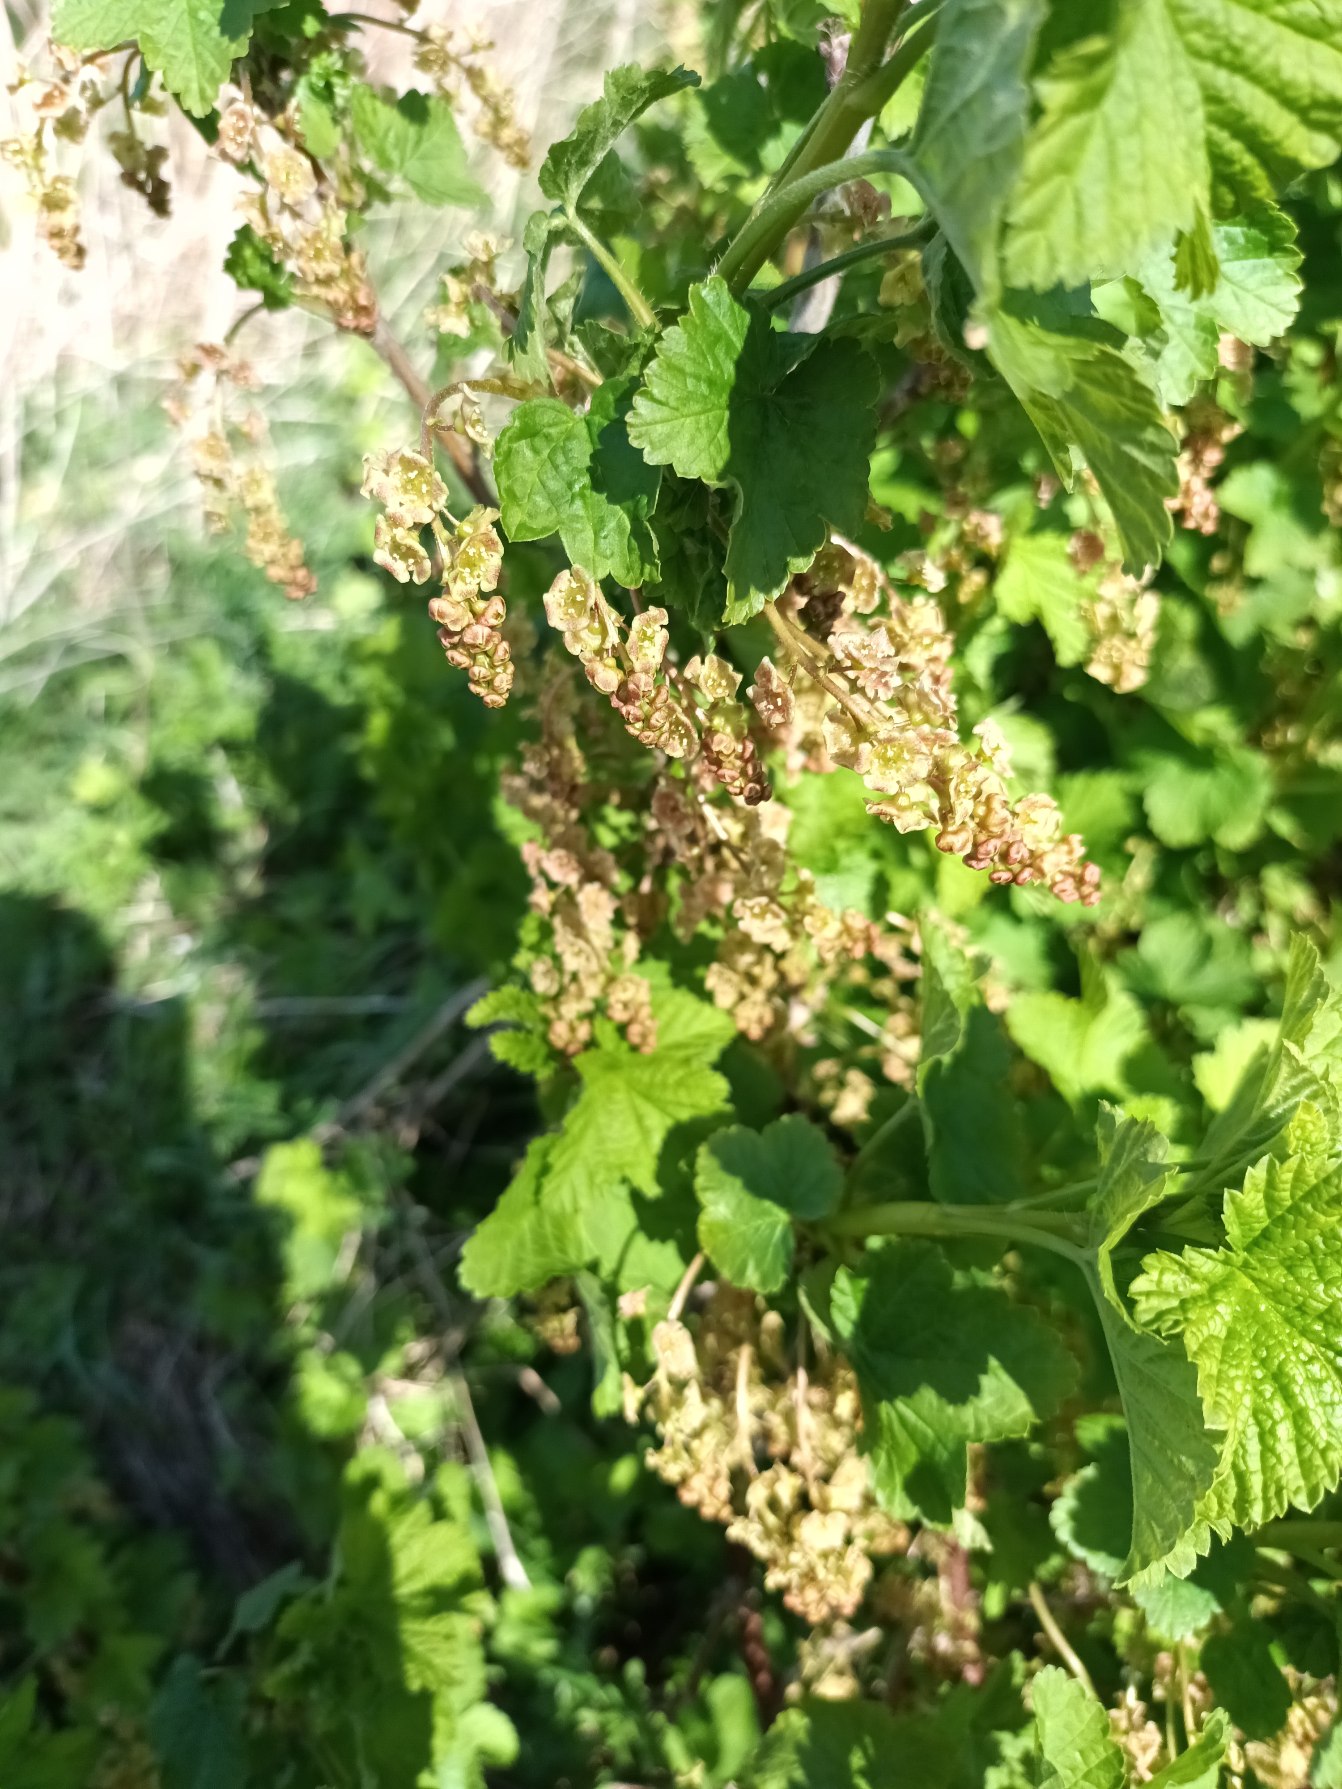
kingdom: Plantae
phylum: Tracheophyta
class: Magnoliopsida
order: Saxifragales
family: Grossulariaceae
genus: Ribes
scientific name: Ribes rubrum
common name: Have-ribs
